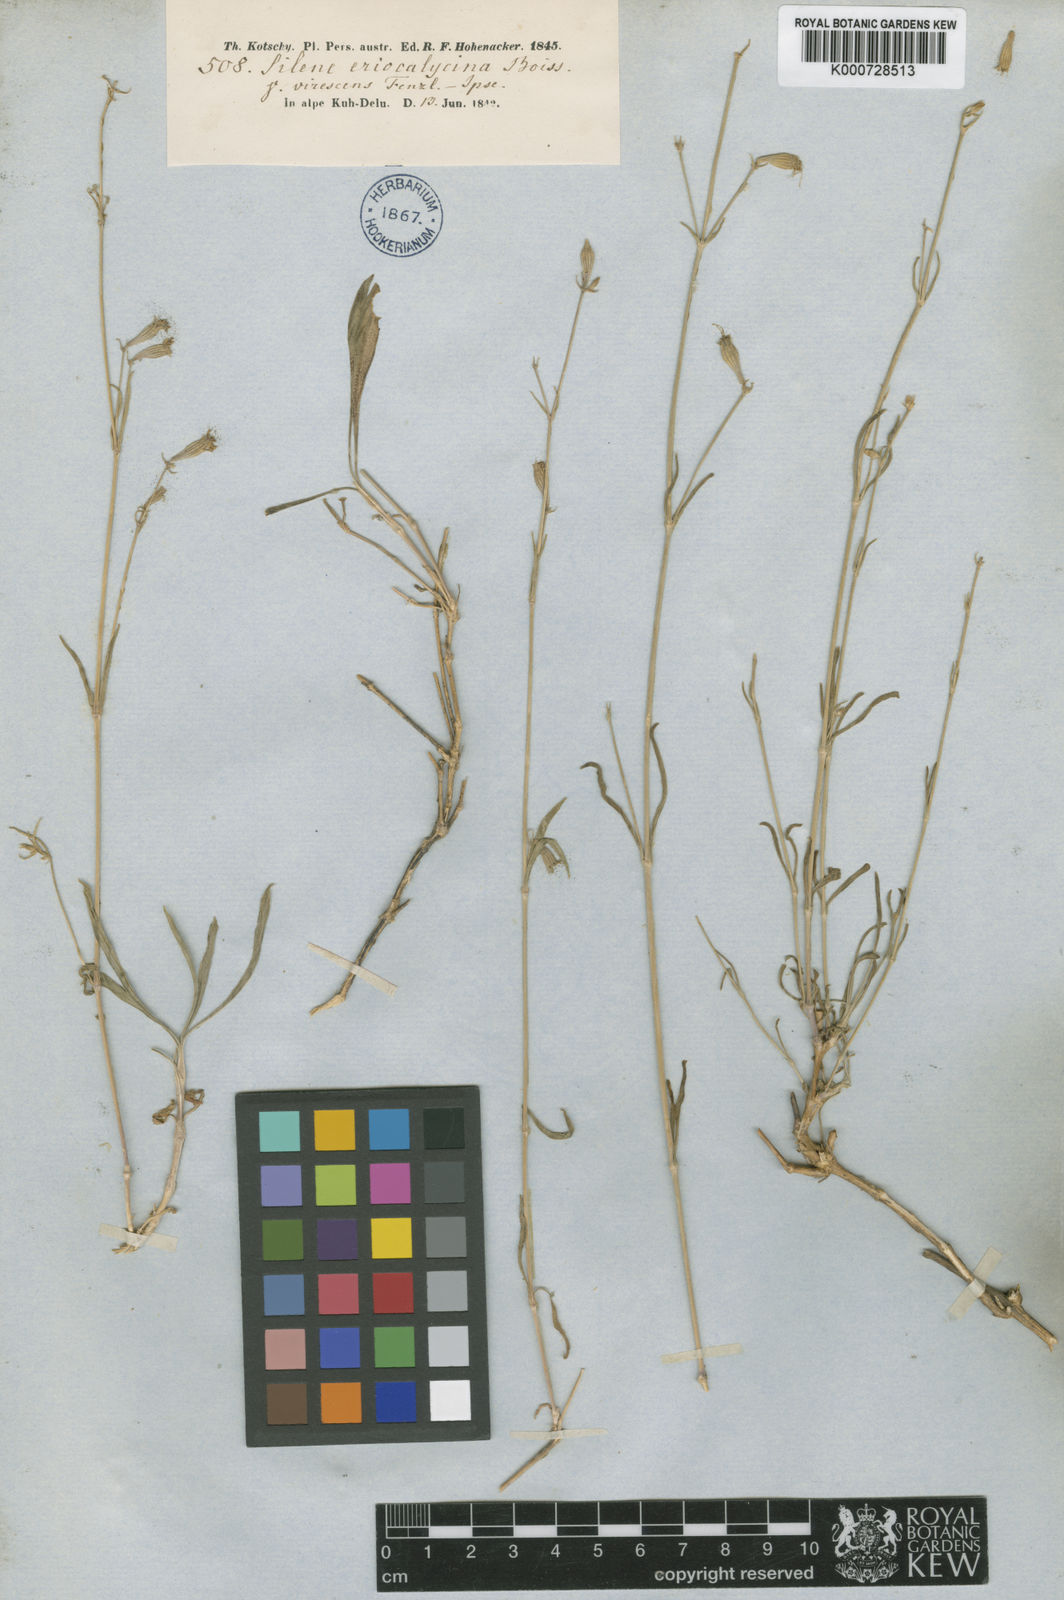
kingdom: Plantae
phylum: Tracheophyta
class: Magnoliopsida
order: Caryophyllales
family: Caryophyllaceae
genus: Silene
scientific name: Silene eriocalycina
